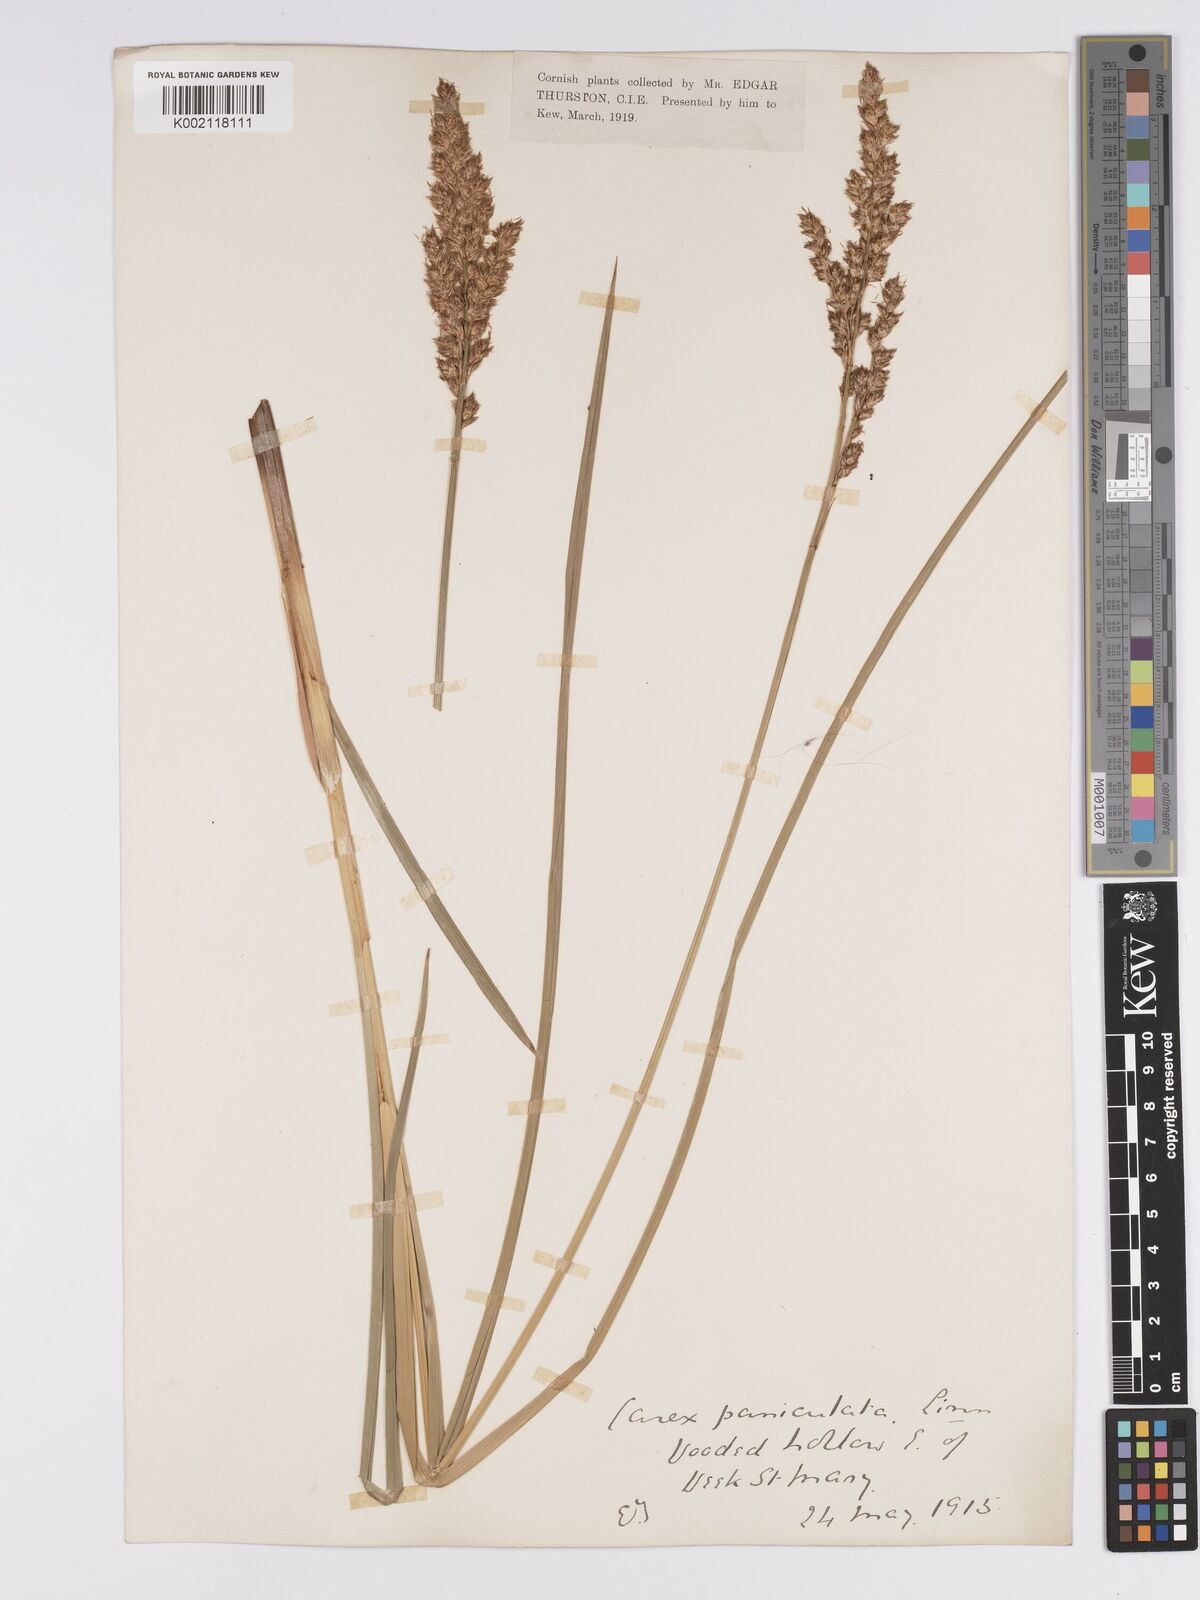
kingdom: Plantae
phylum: Tracheophyta
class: Liliopsida
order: Poales
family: Cyperaceae
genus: Carex
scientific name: Carex paniculata
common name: Greater tussock-sedge
